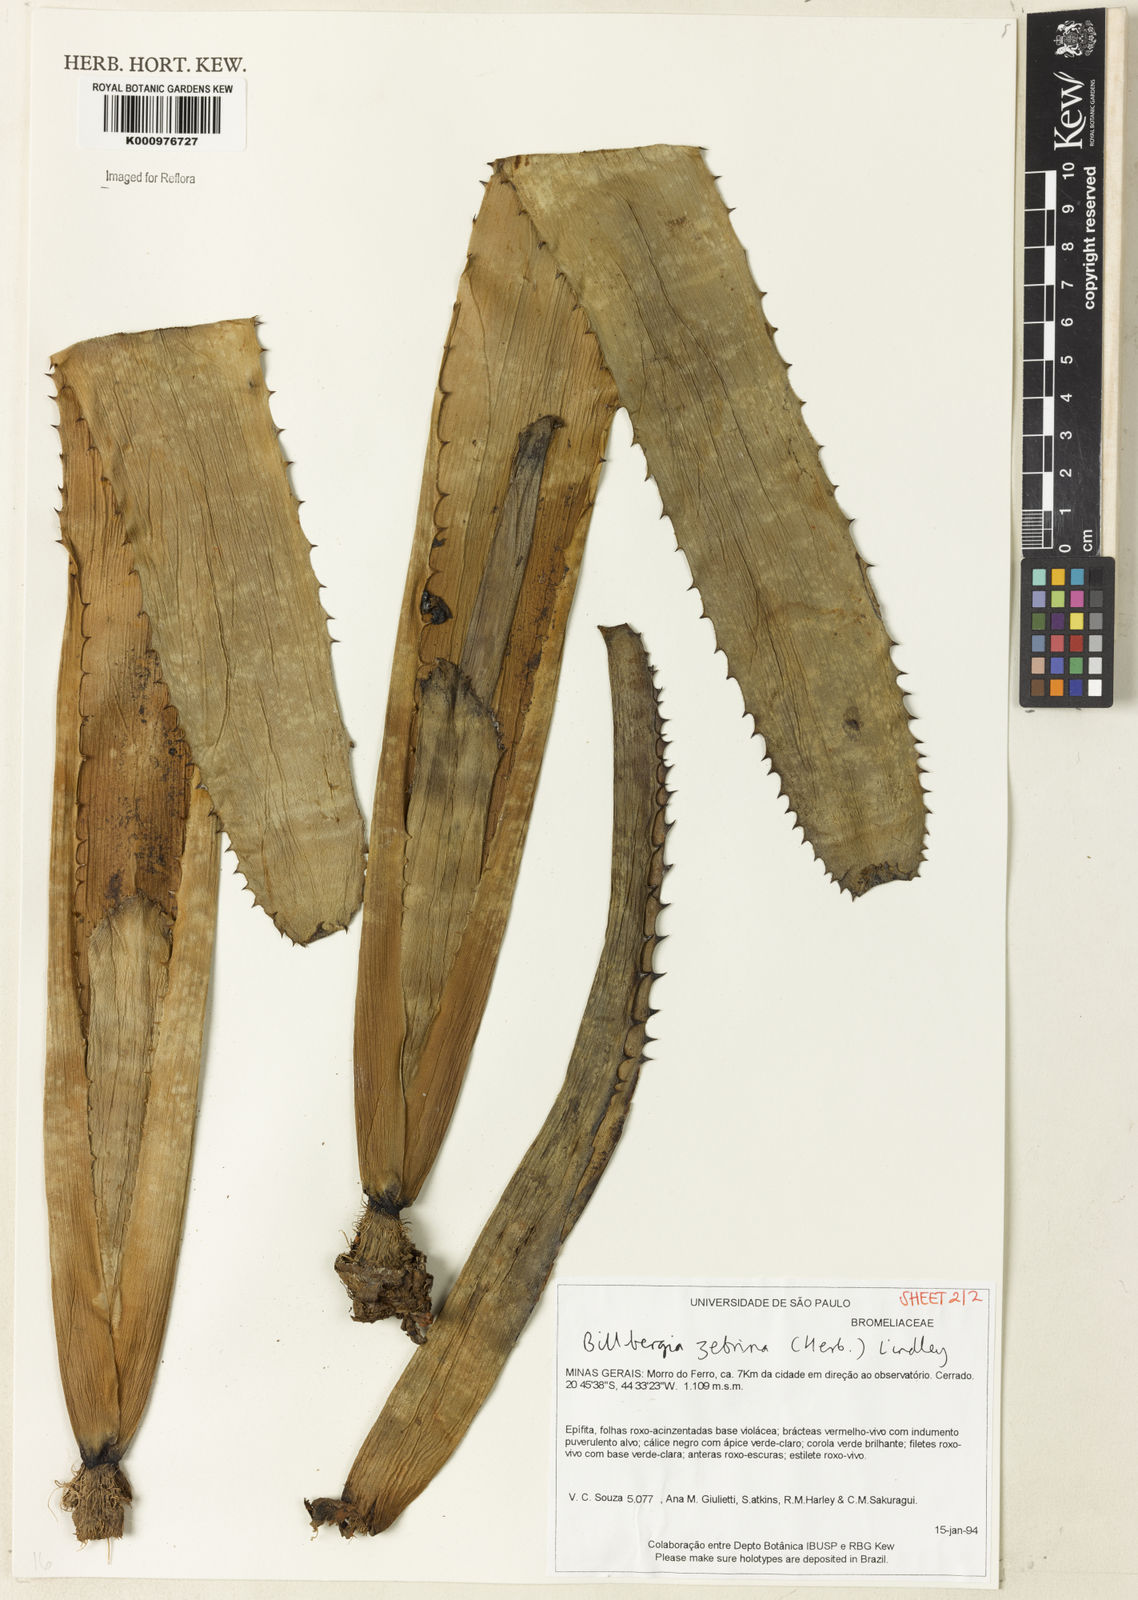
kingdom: Plantae
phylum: Tracheophyta
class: Liliopsida
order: Poales
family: Bromeliaceae
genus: Billbergia
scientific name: Billbergia zebrina
